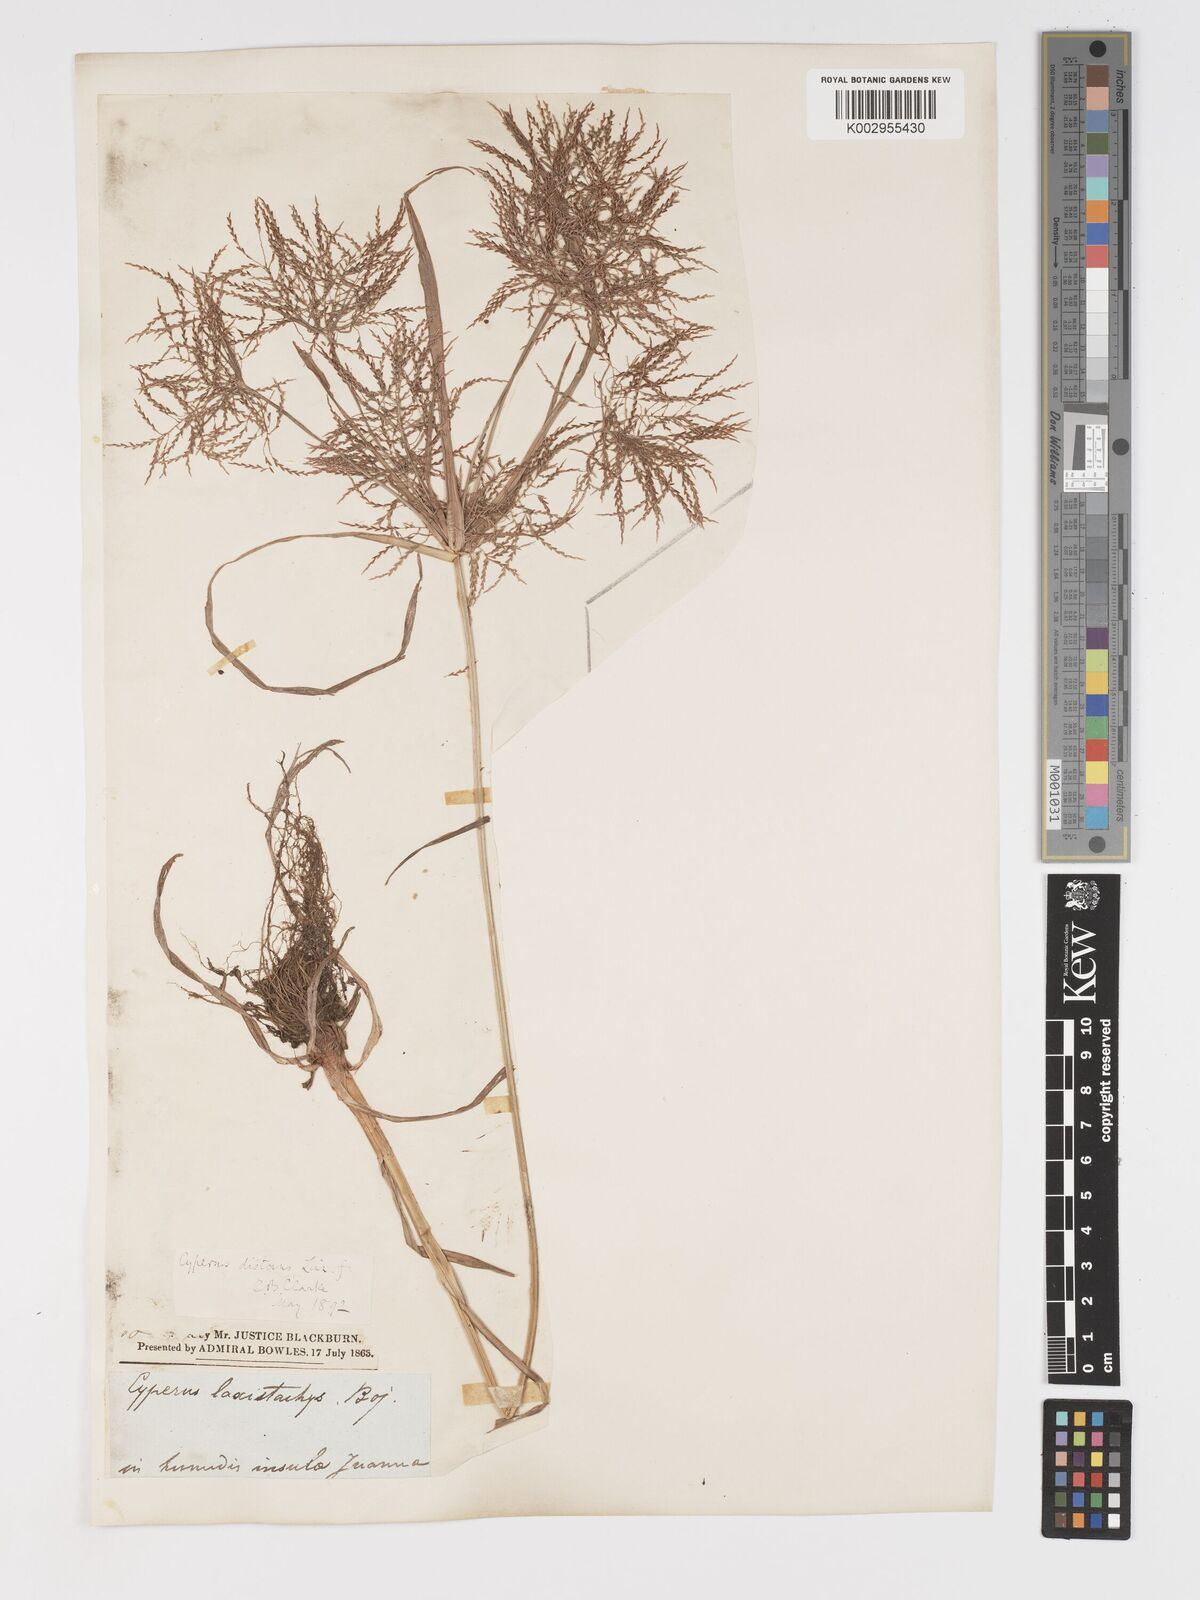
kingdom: Plantae
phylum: Tracheophyta
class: Liliopsida
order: Poales
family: Cyperaceae
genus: Cyperus
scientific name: Cyperus distans
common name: Slender cyperus
